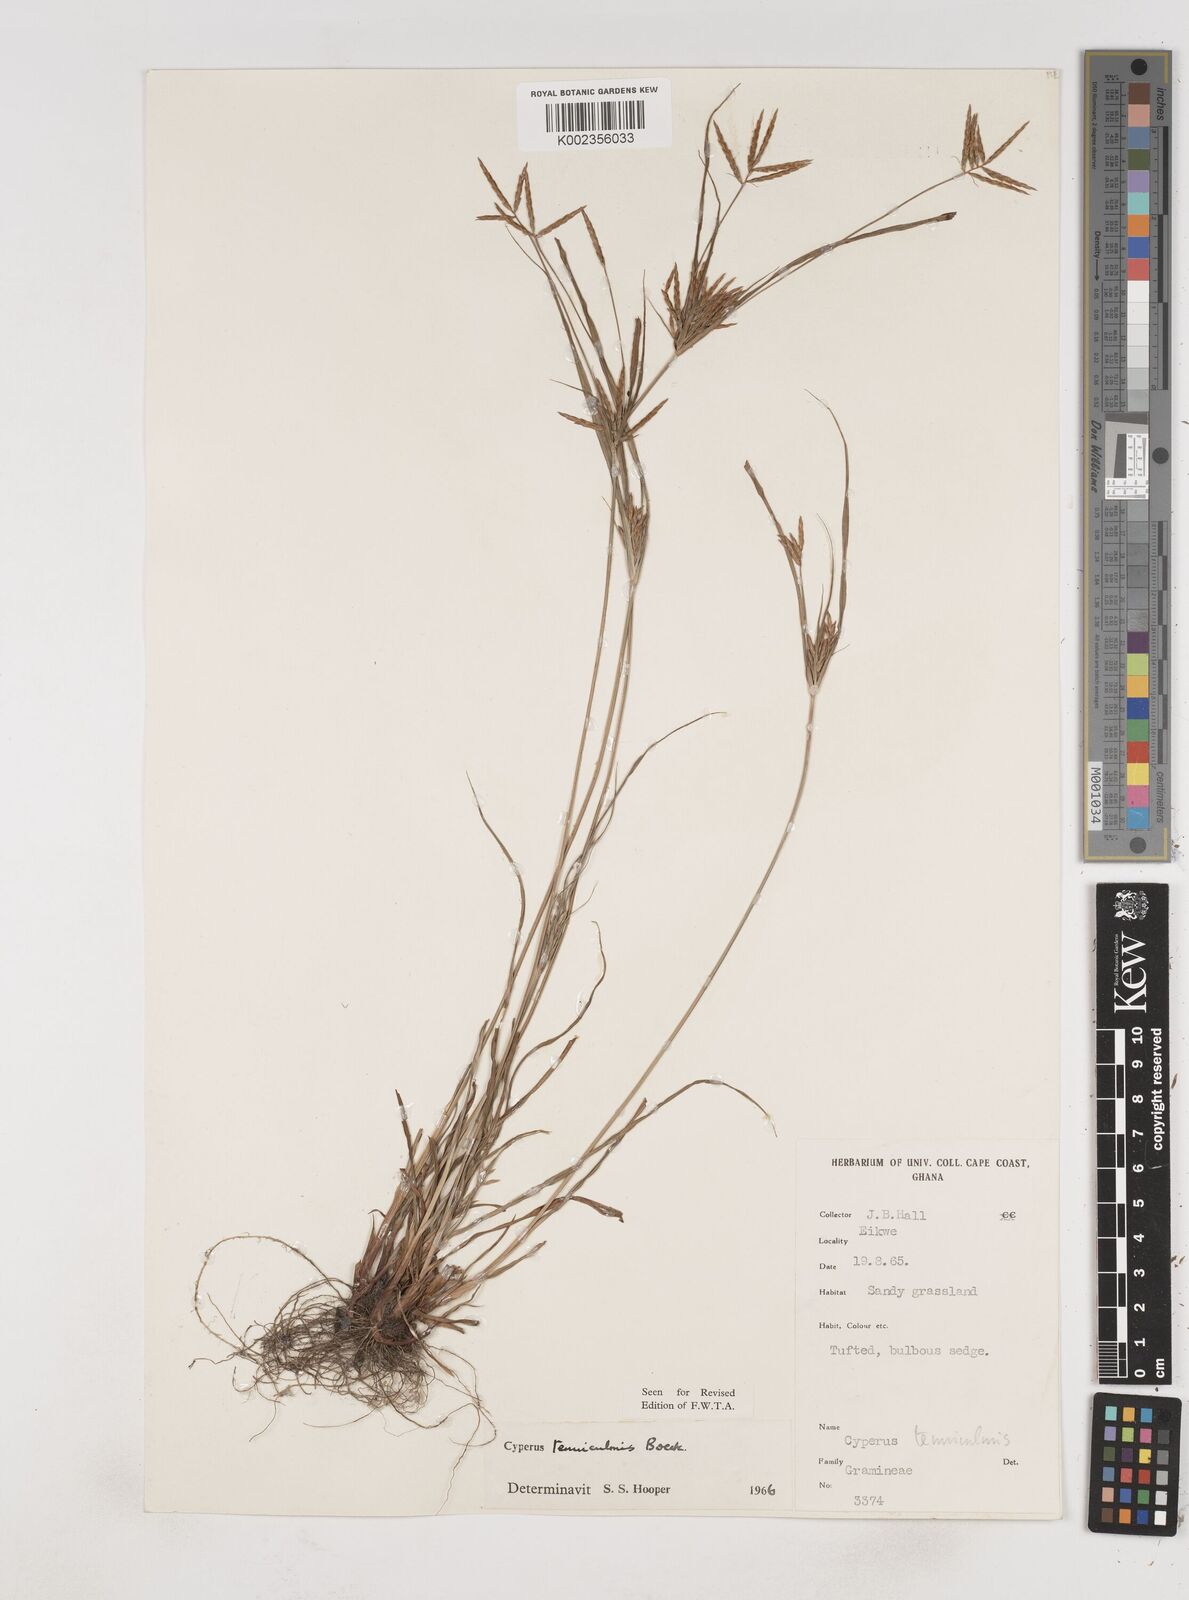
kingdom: Plantae
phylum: Tracheophyta
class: Liliopsida
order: Poales
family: Cyperaceae
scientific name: Cyperaceae
